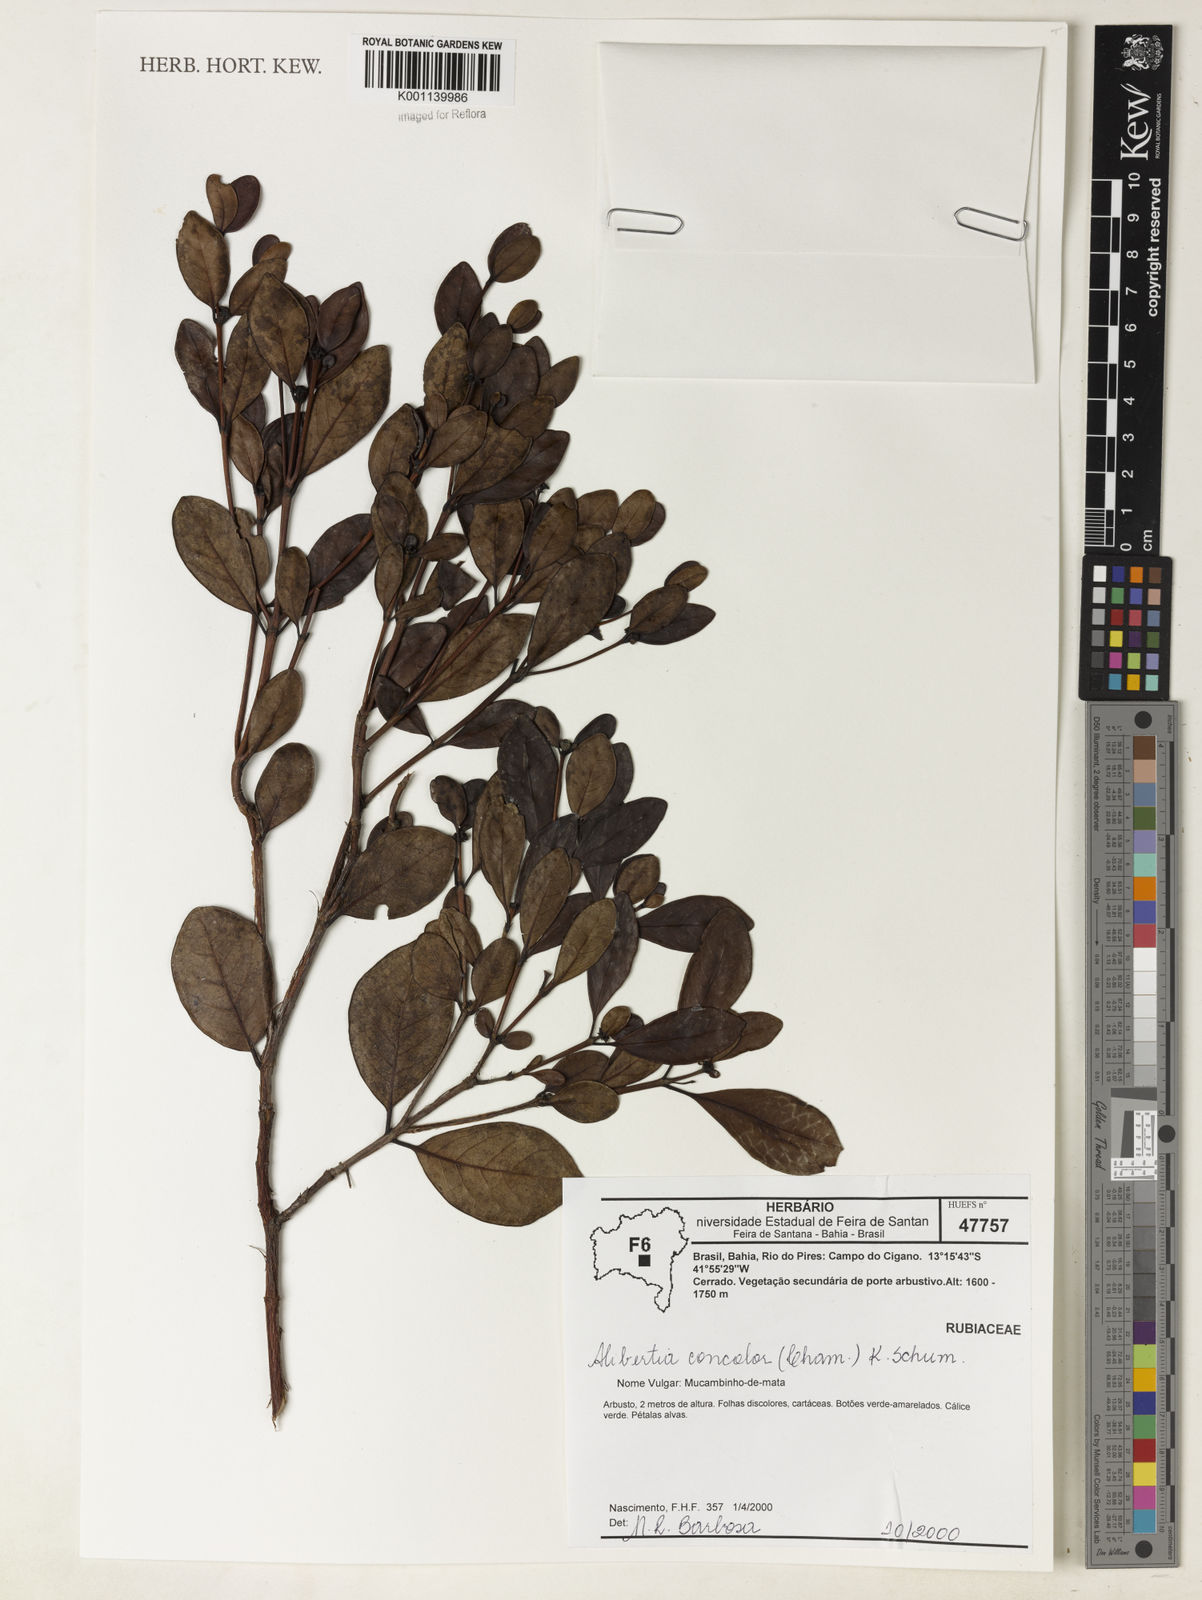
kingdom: Plantae
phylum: Tracheophyta
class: Magnoliopsida
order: Gentianales
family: Rubiaceae
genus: Cordiera
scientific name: Cordiera concolor
